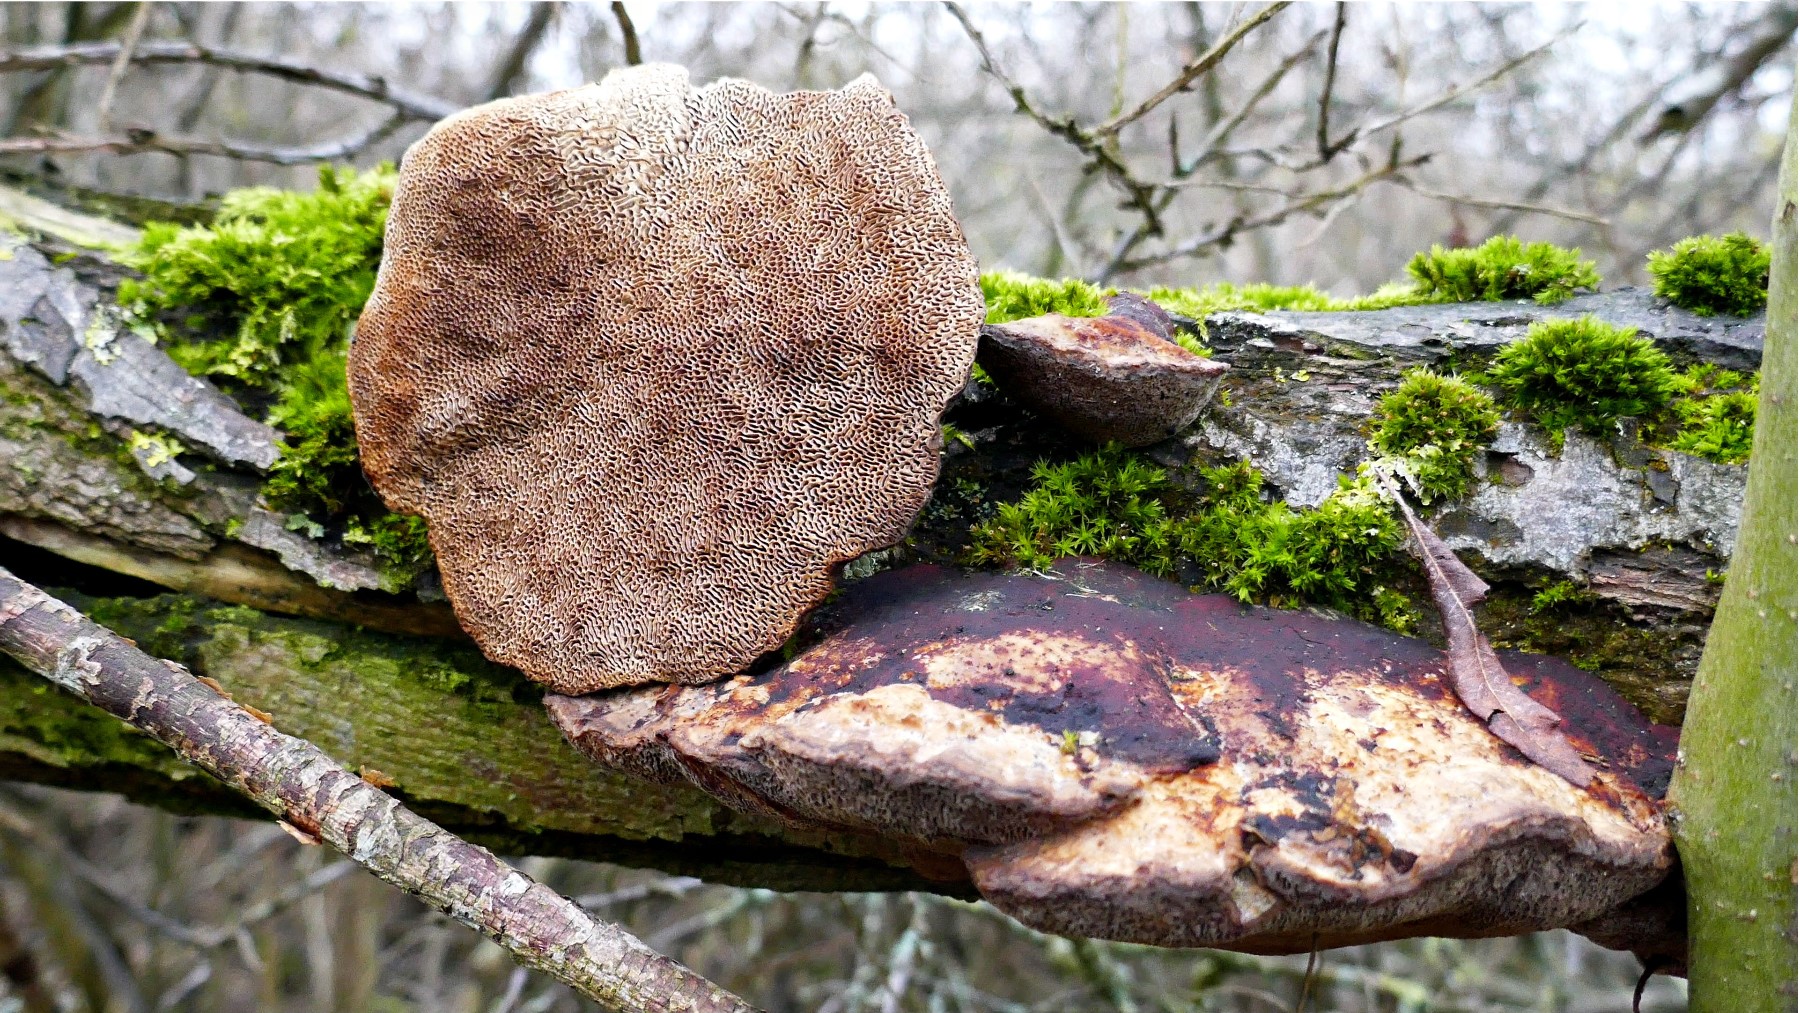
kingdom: Fungi
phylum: Basidiomycota
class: Agaricomycetes
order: Polyporales
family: Polyporaceae
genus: Daedaleopsis
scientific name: Daedaleopsis confragosa
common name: rødmende læderporesvamp
